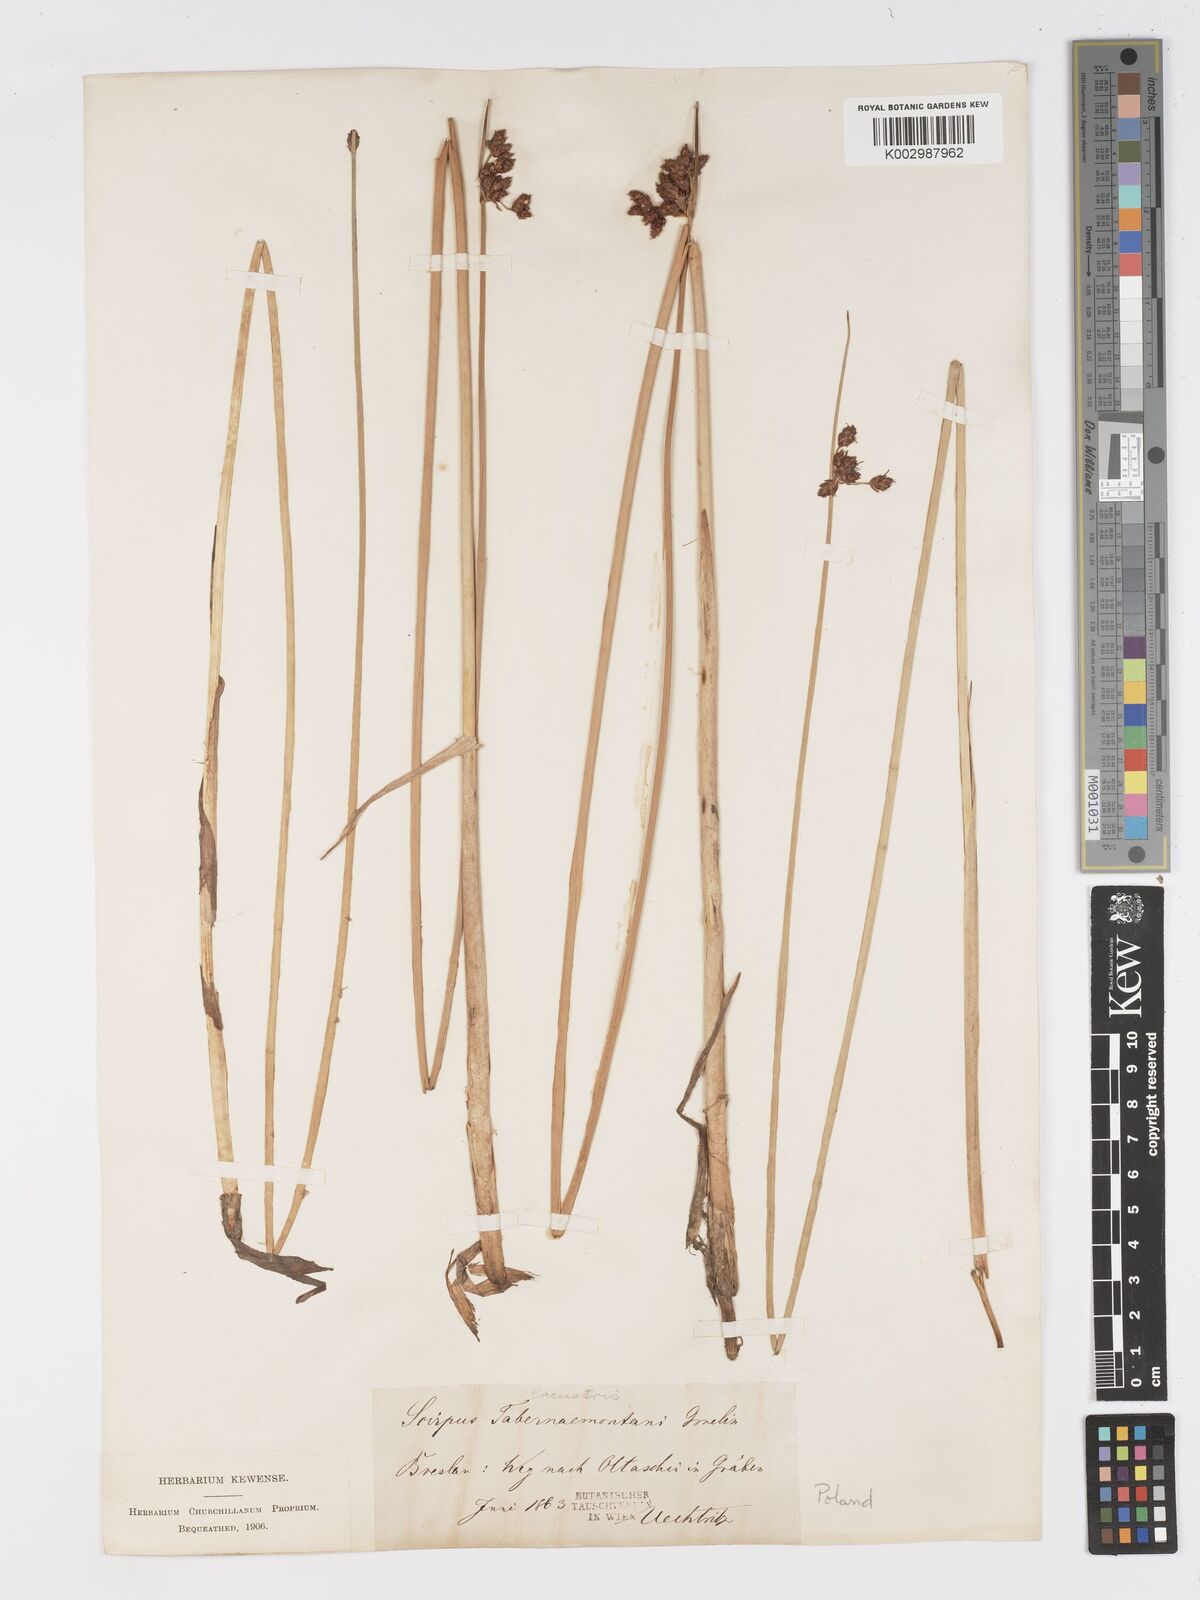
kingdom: Plantae
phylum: Tracheophyta
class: Liliopsida
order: Poales
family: Cyperaceae
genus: Schoenoplectus
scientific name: Schoenoplectus tabernaemontani
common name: Grey club-rush
